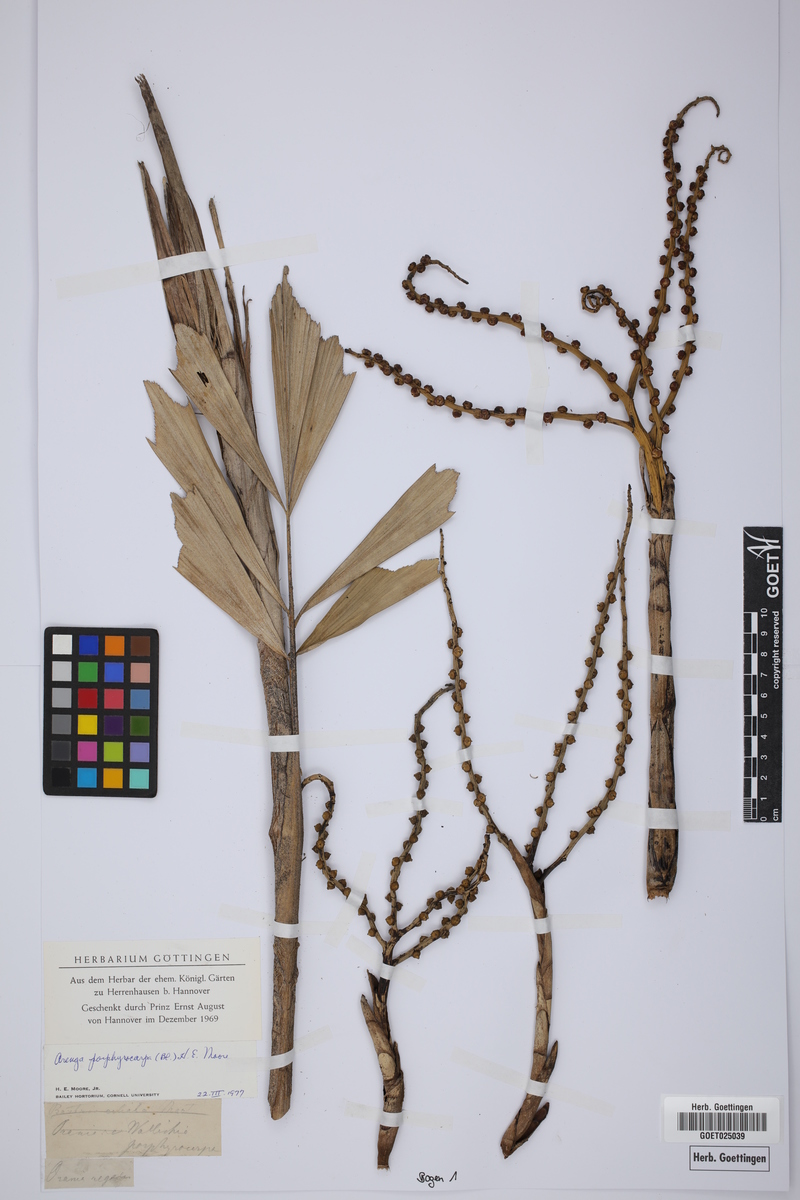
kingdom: Plantae
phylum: Tracheophyta
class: Liliopsida
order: Arecales
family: Arecaceae
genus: Arenga
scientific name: Arenga porphyrocarpa
